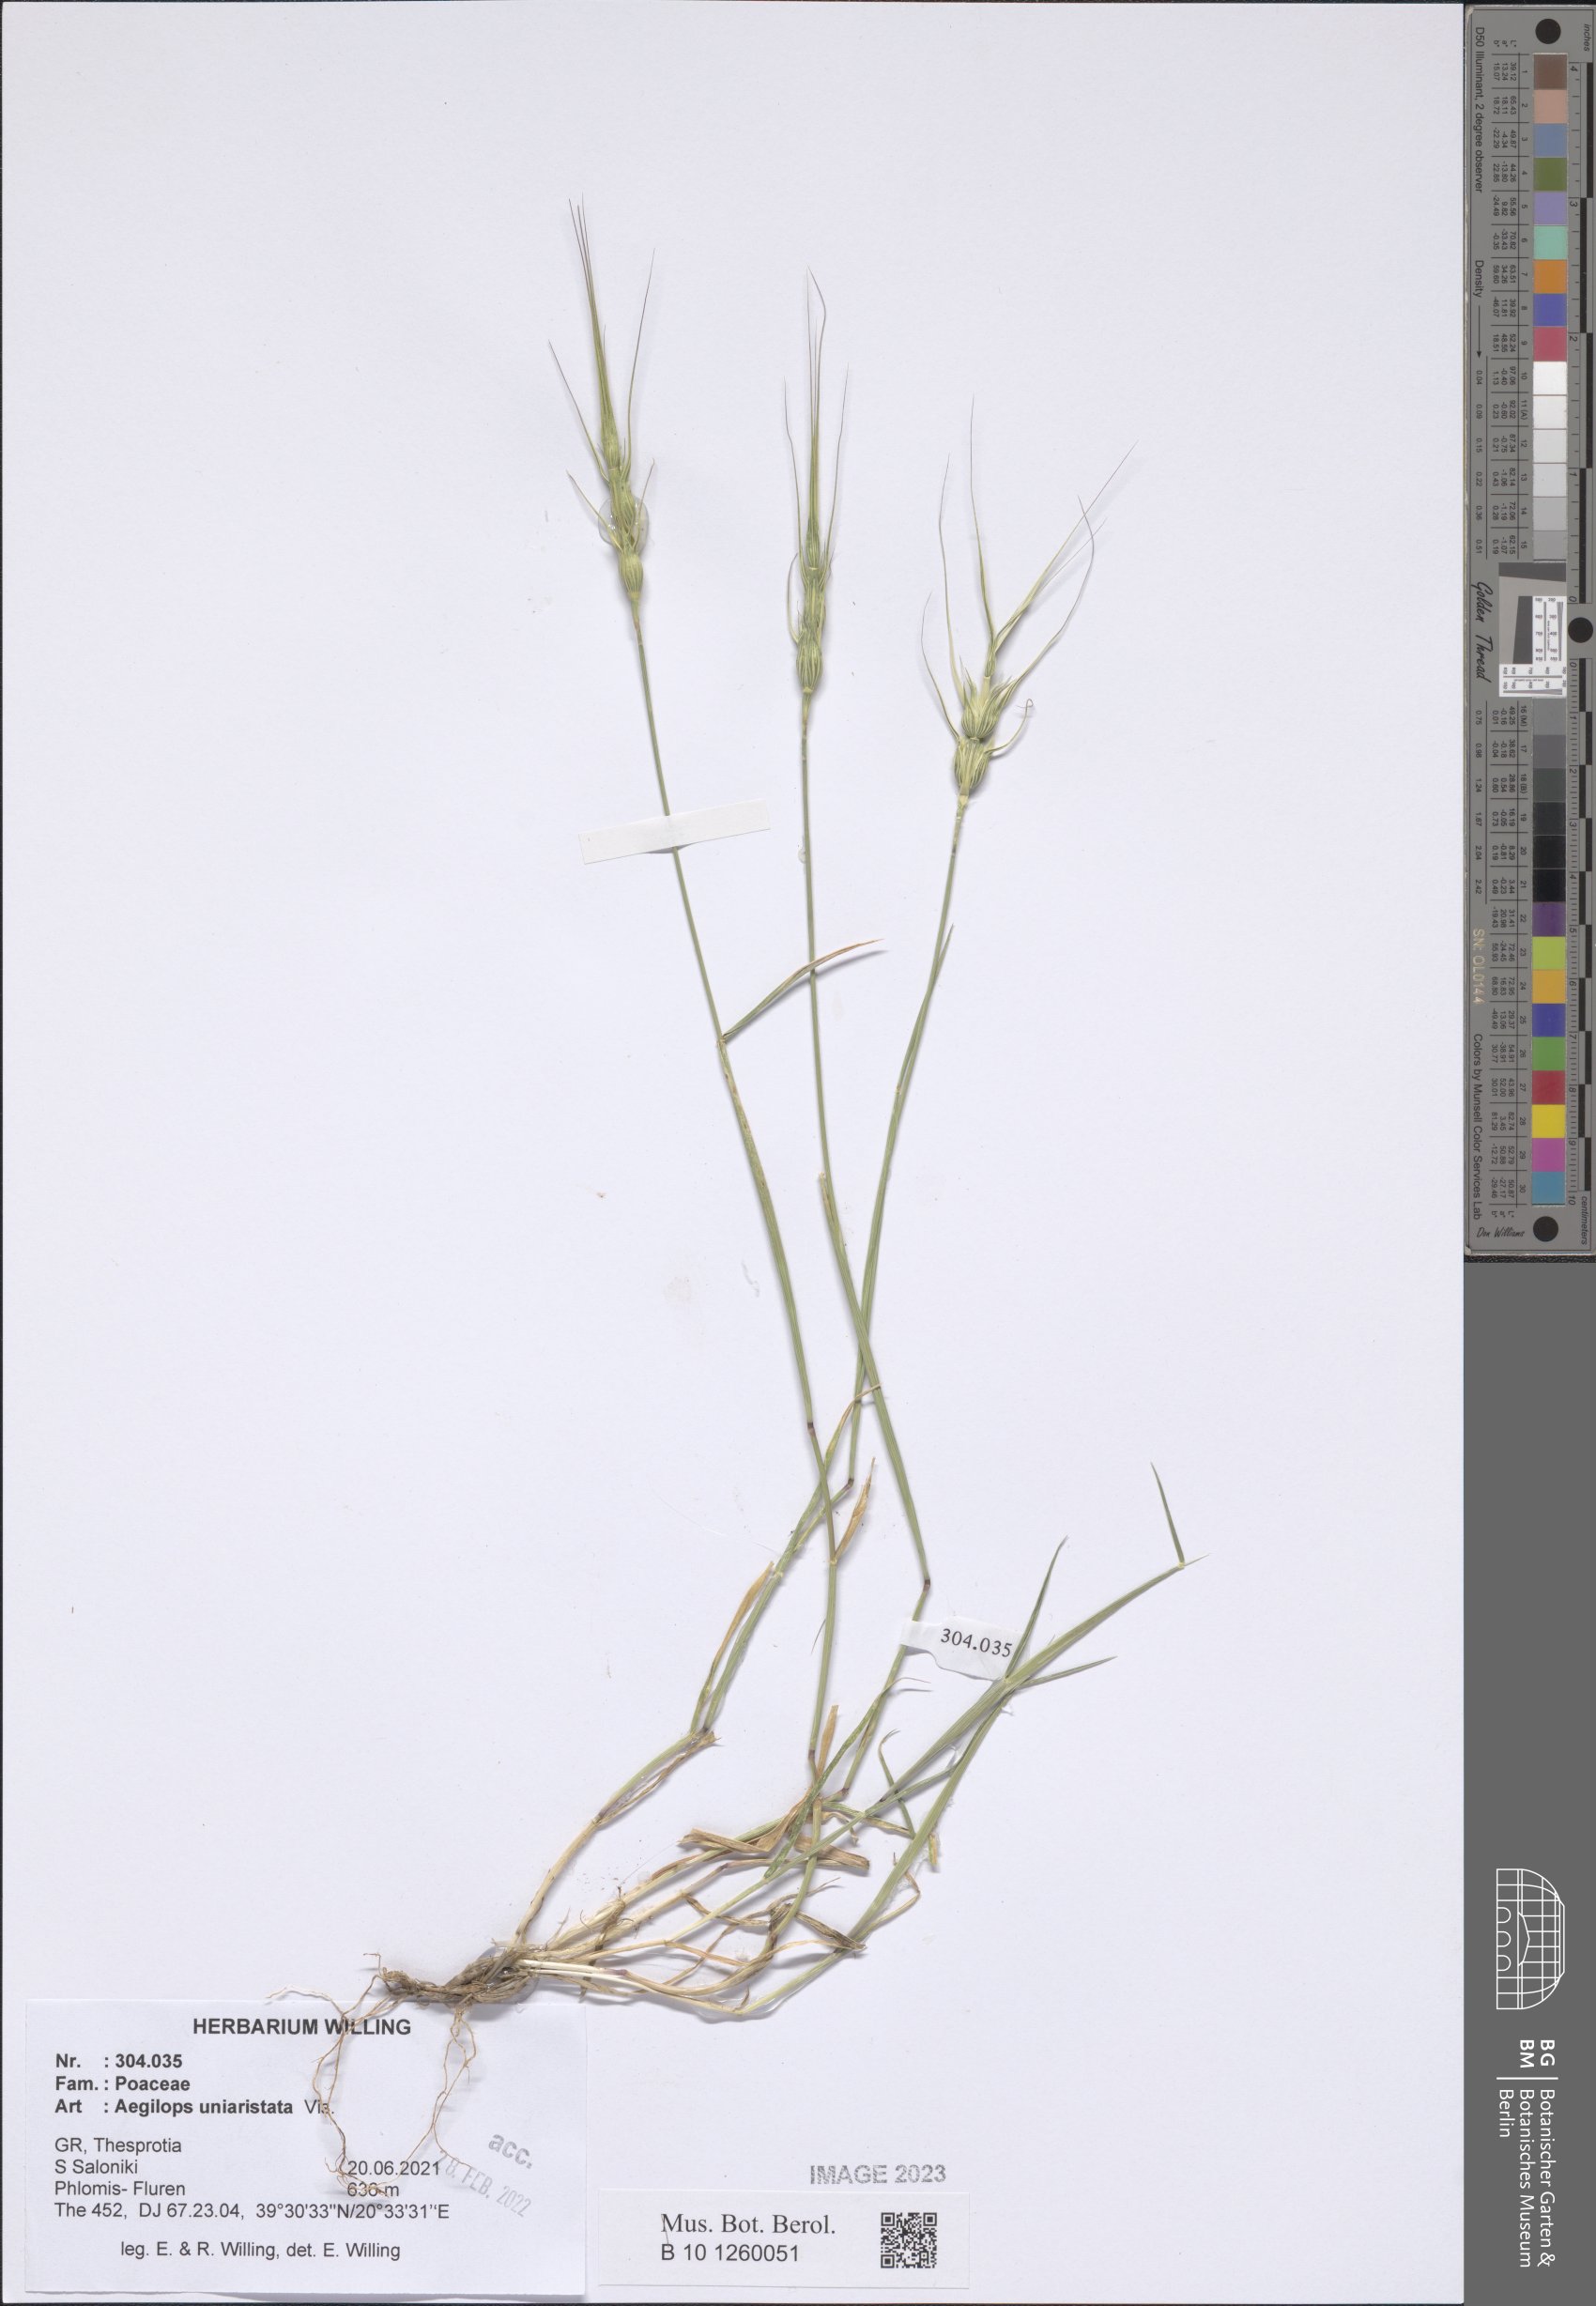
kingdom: Plantae
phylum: Tracheophyta
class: Liliopsida
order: Poales
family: Poaceae
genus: Aegilops
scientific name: Aegilops uniaristata
